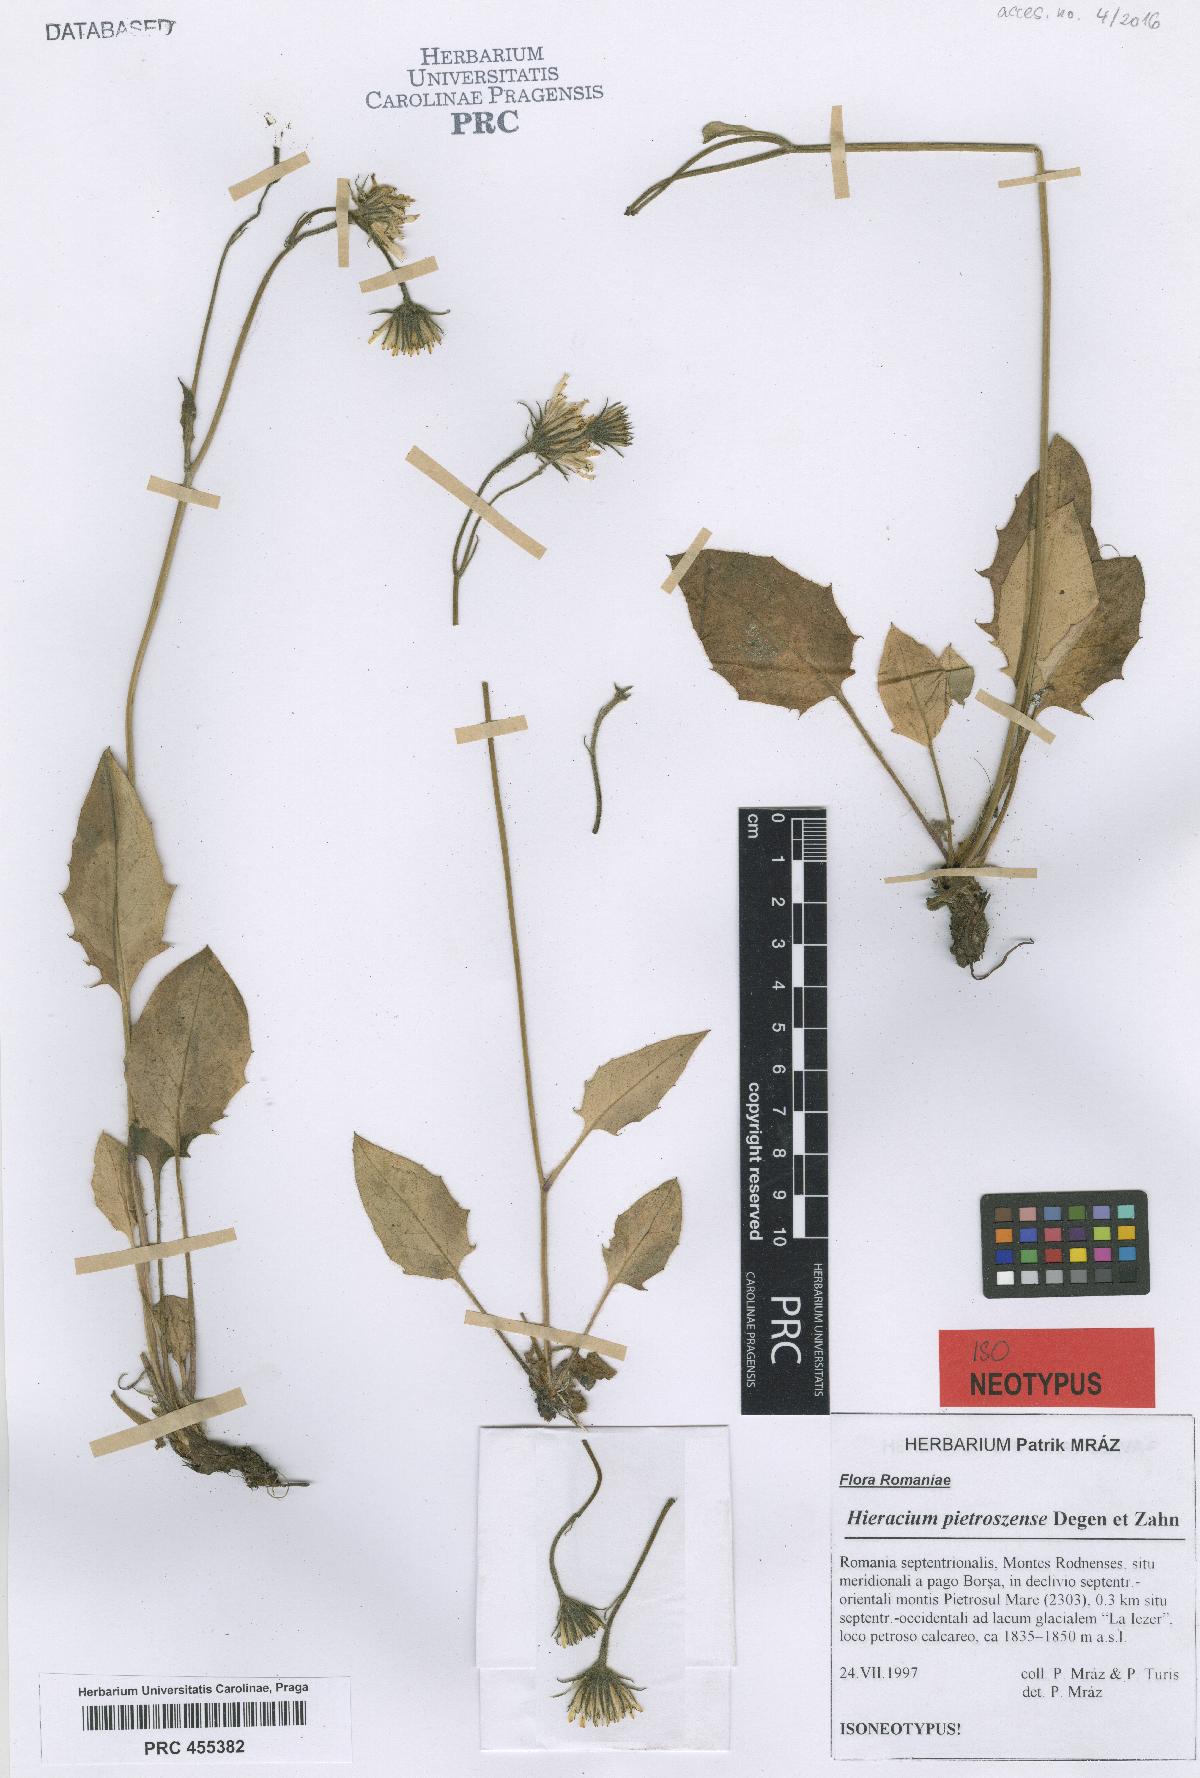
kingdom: Plantae
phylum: Tracheophyta
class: Magnoliopsida
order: Asterales
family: Asteraceae
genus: Hieracium
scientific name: Hieracium pietroszense
